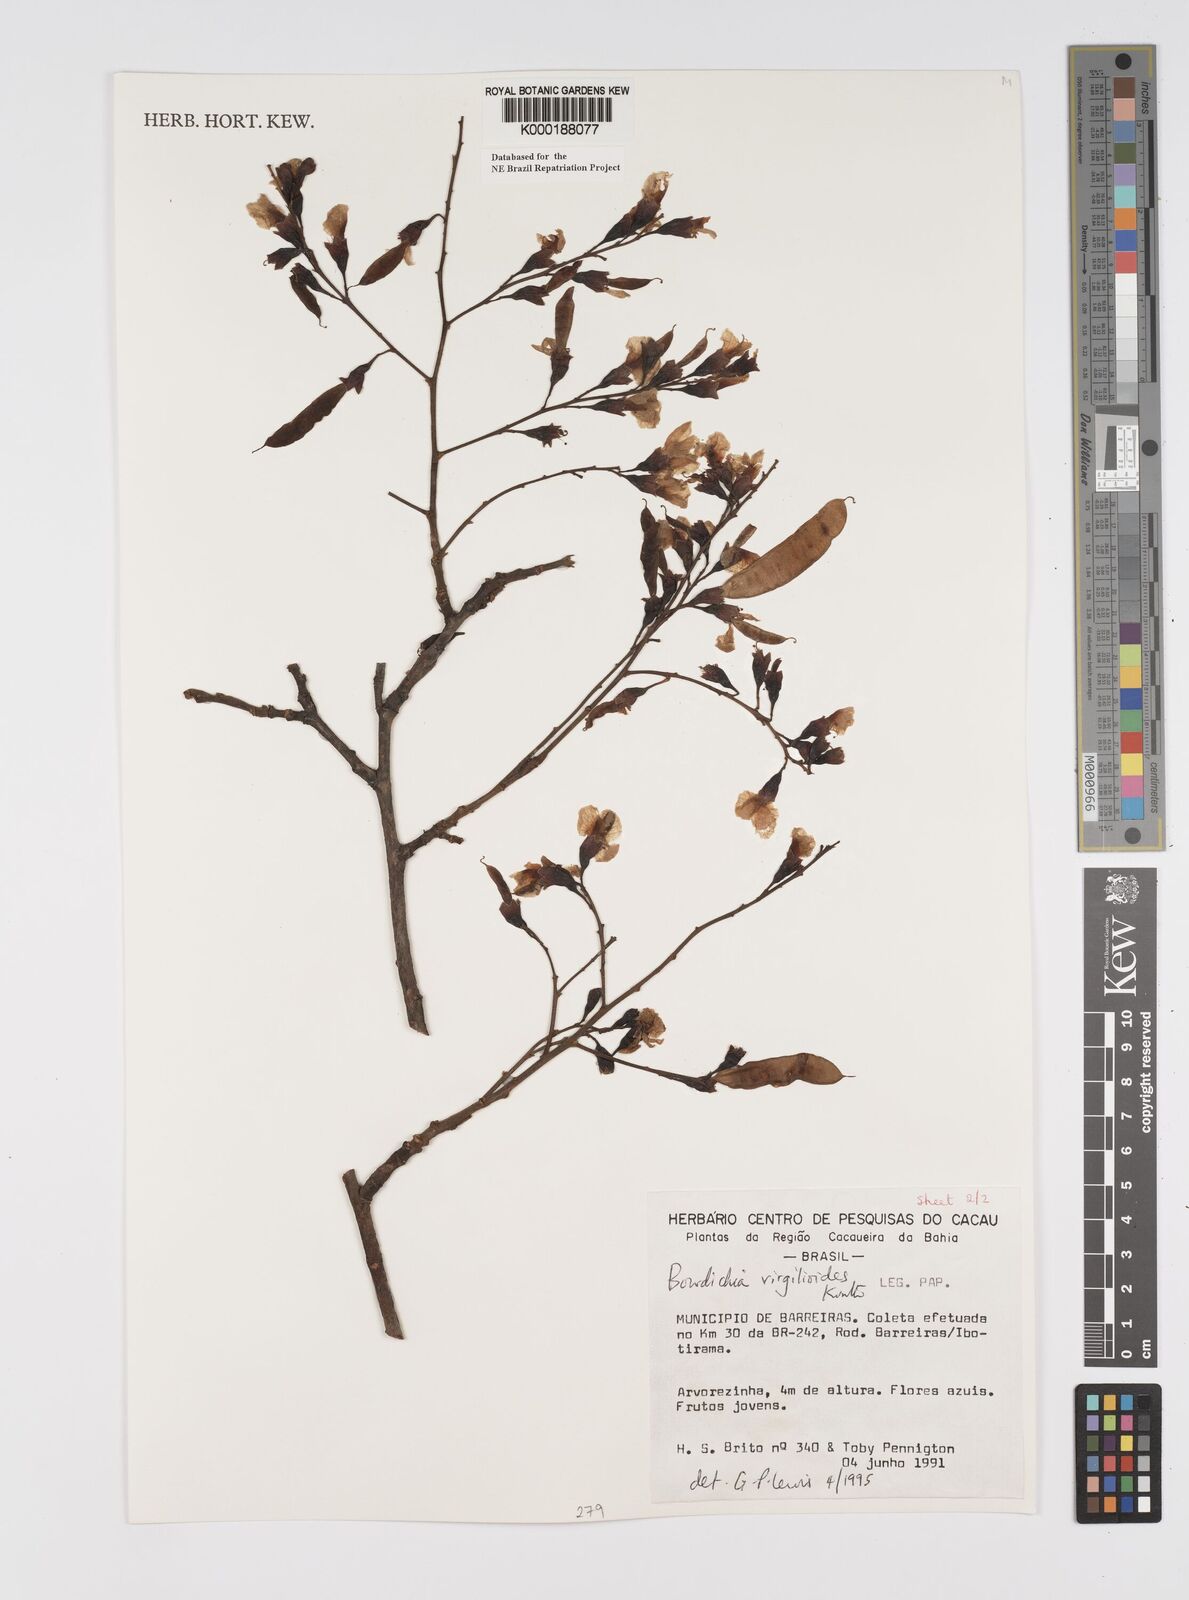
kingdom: Plantae
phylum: Tracheophyta
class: Magnoliopsida
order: Fabales
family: Fabaceae
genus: Bowdichia
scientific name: Bowdichia virgilioides
